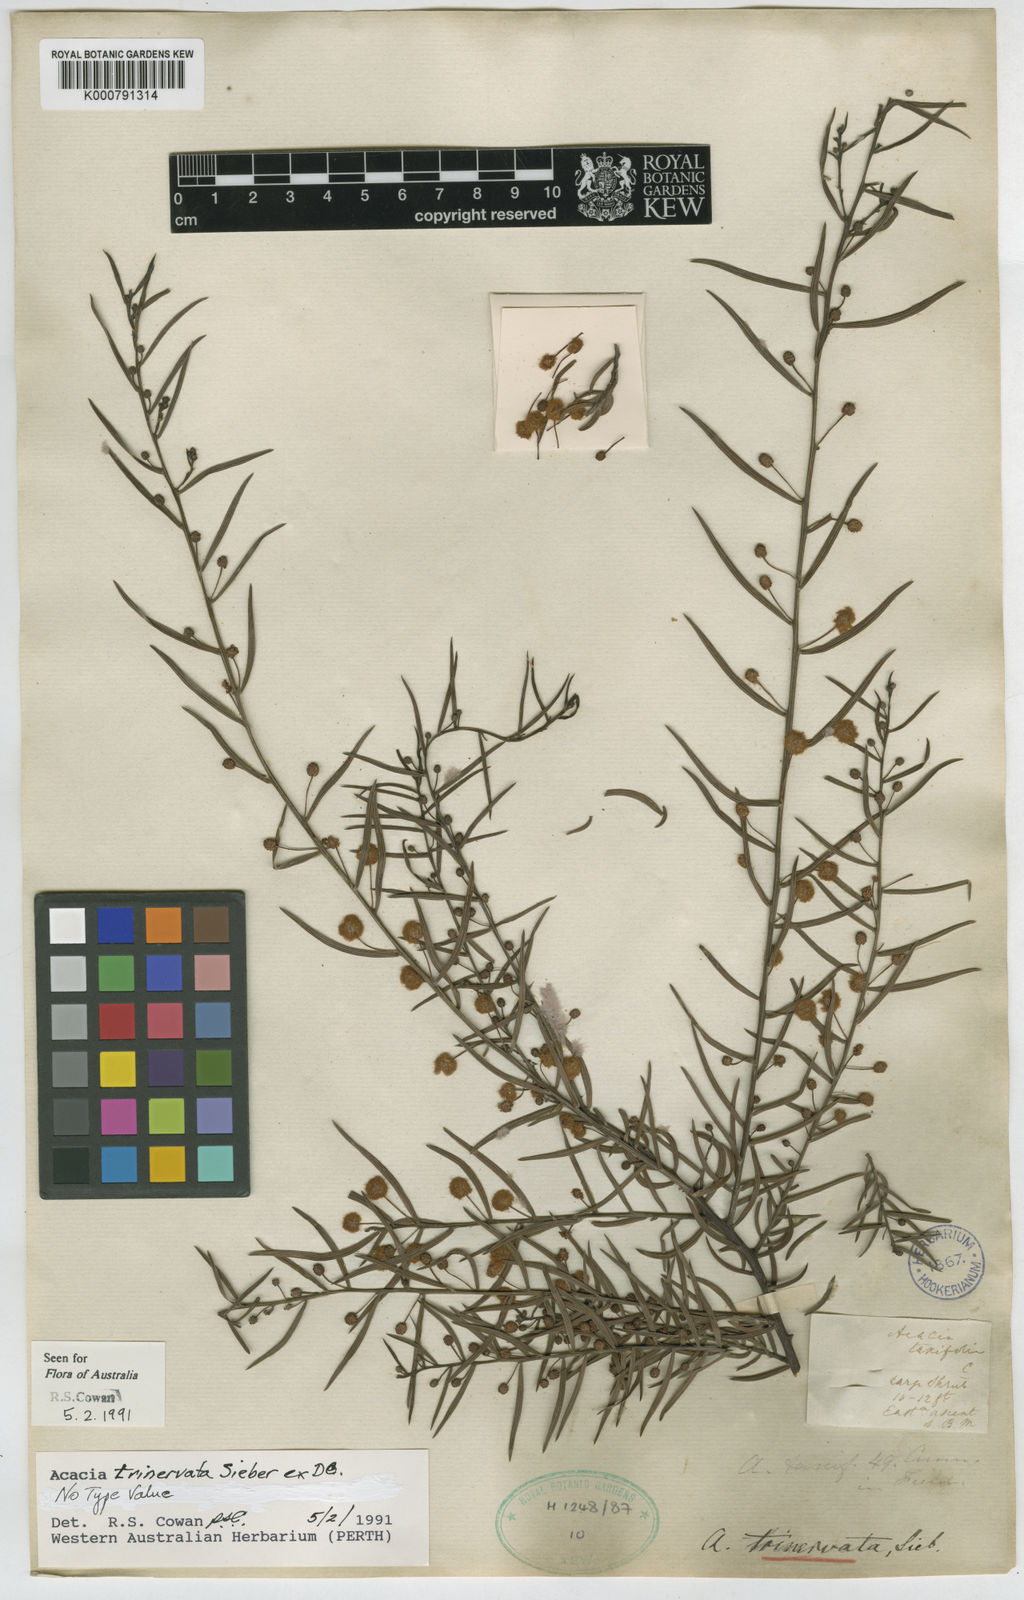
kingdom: Plantae
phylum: Tracheophyta
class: Magnoliopsida
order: Fabales
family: Fabaceae
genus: Acacia
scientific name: Acacia trinervata
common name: Three-nerve wattle
